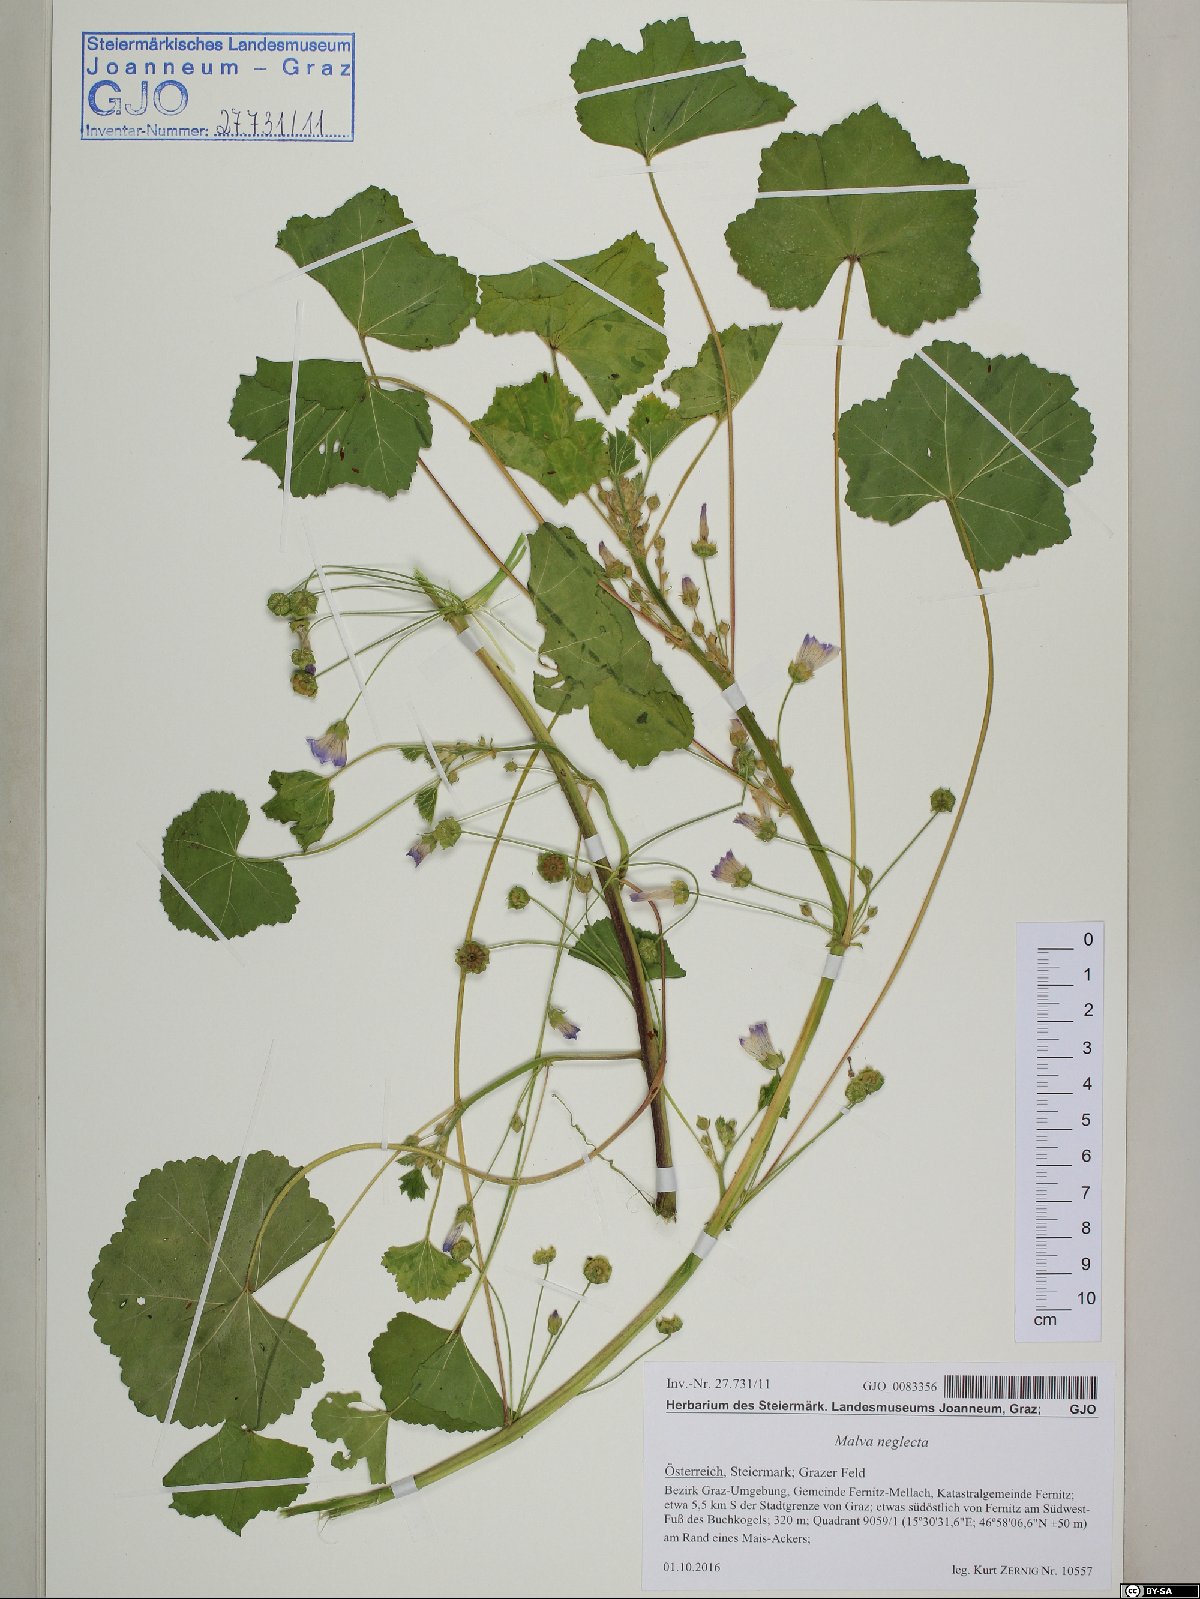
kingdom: Plantae
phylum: Tracheophyta
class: Magnoliopsida
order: Malvales
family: Malvaceae
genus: Malva
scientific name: Malva neglecta
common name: Common mallow
